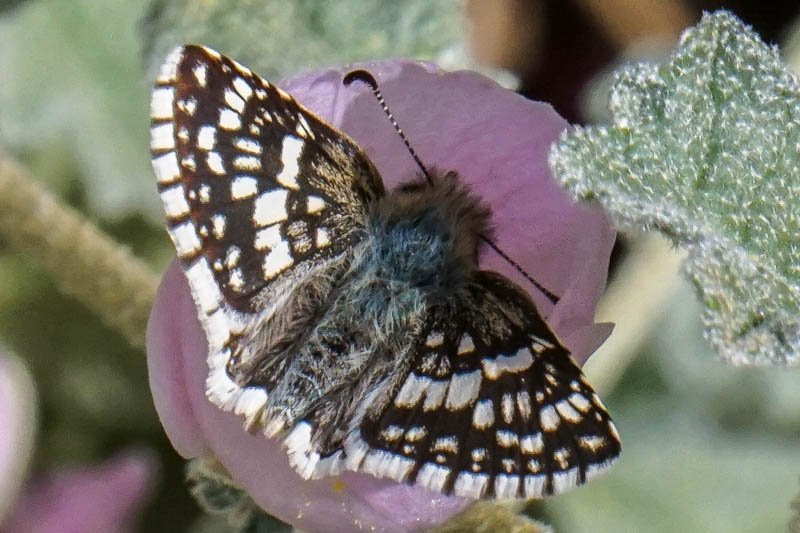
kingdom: Animalia
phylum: Arthropoda
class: Insecta
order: Lepidoptera
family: Hesperiidae
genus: Pyrgus
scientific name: Pyrgus oileus
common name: Desert Checkered-Skipper
